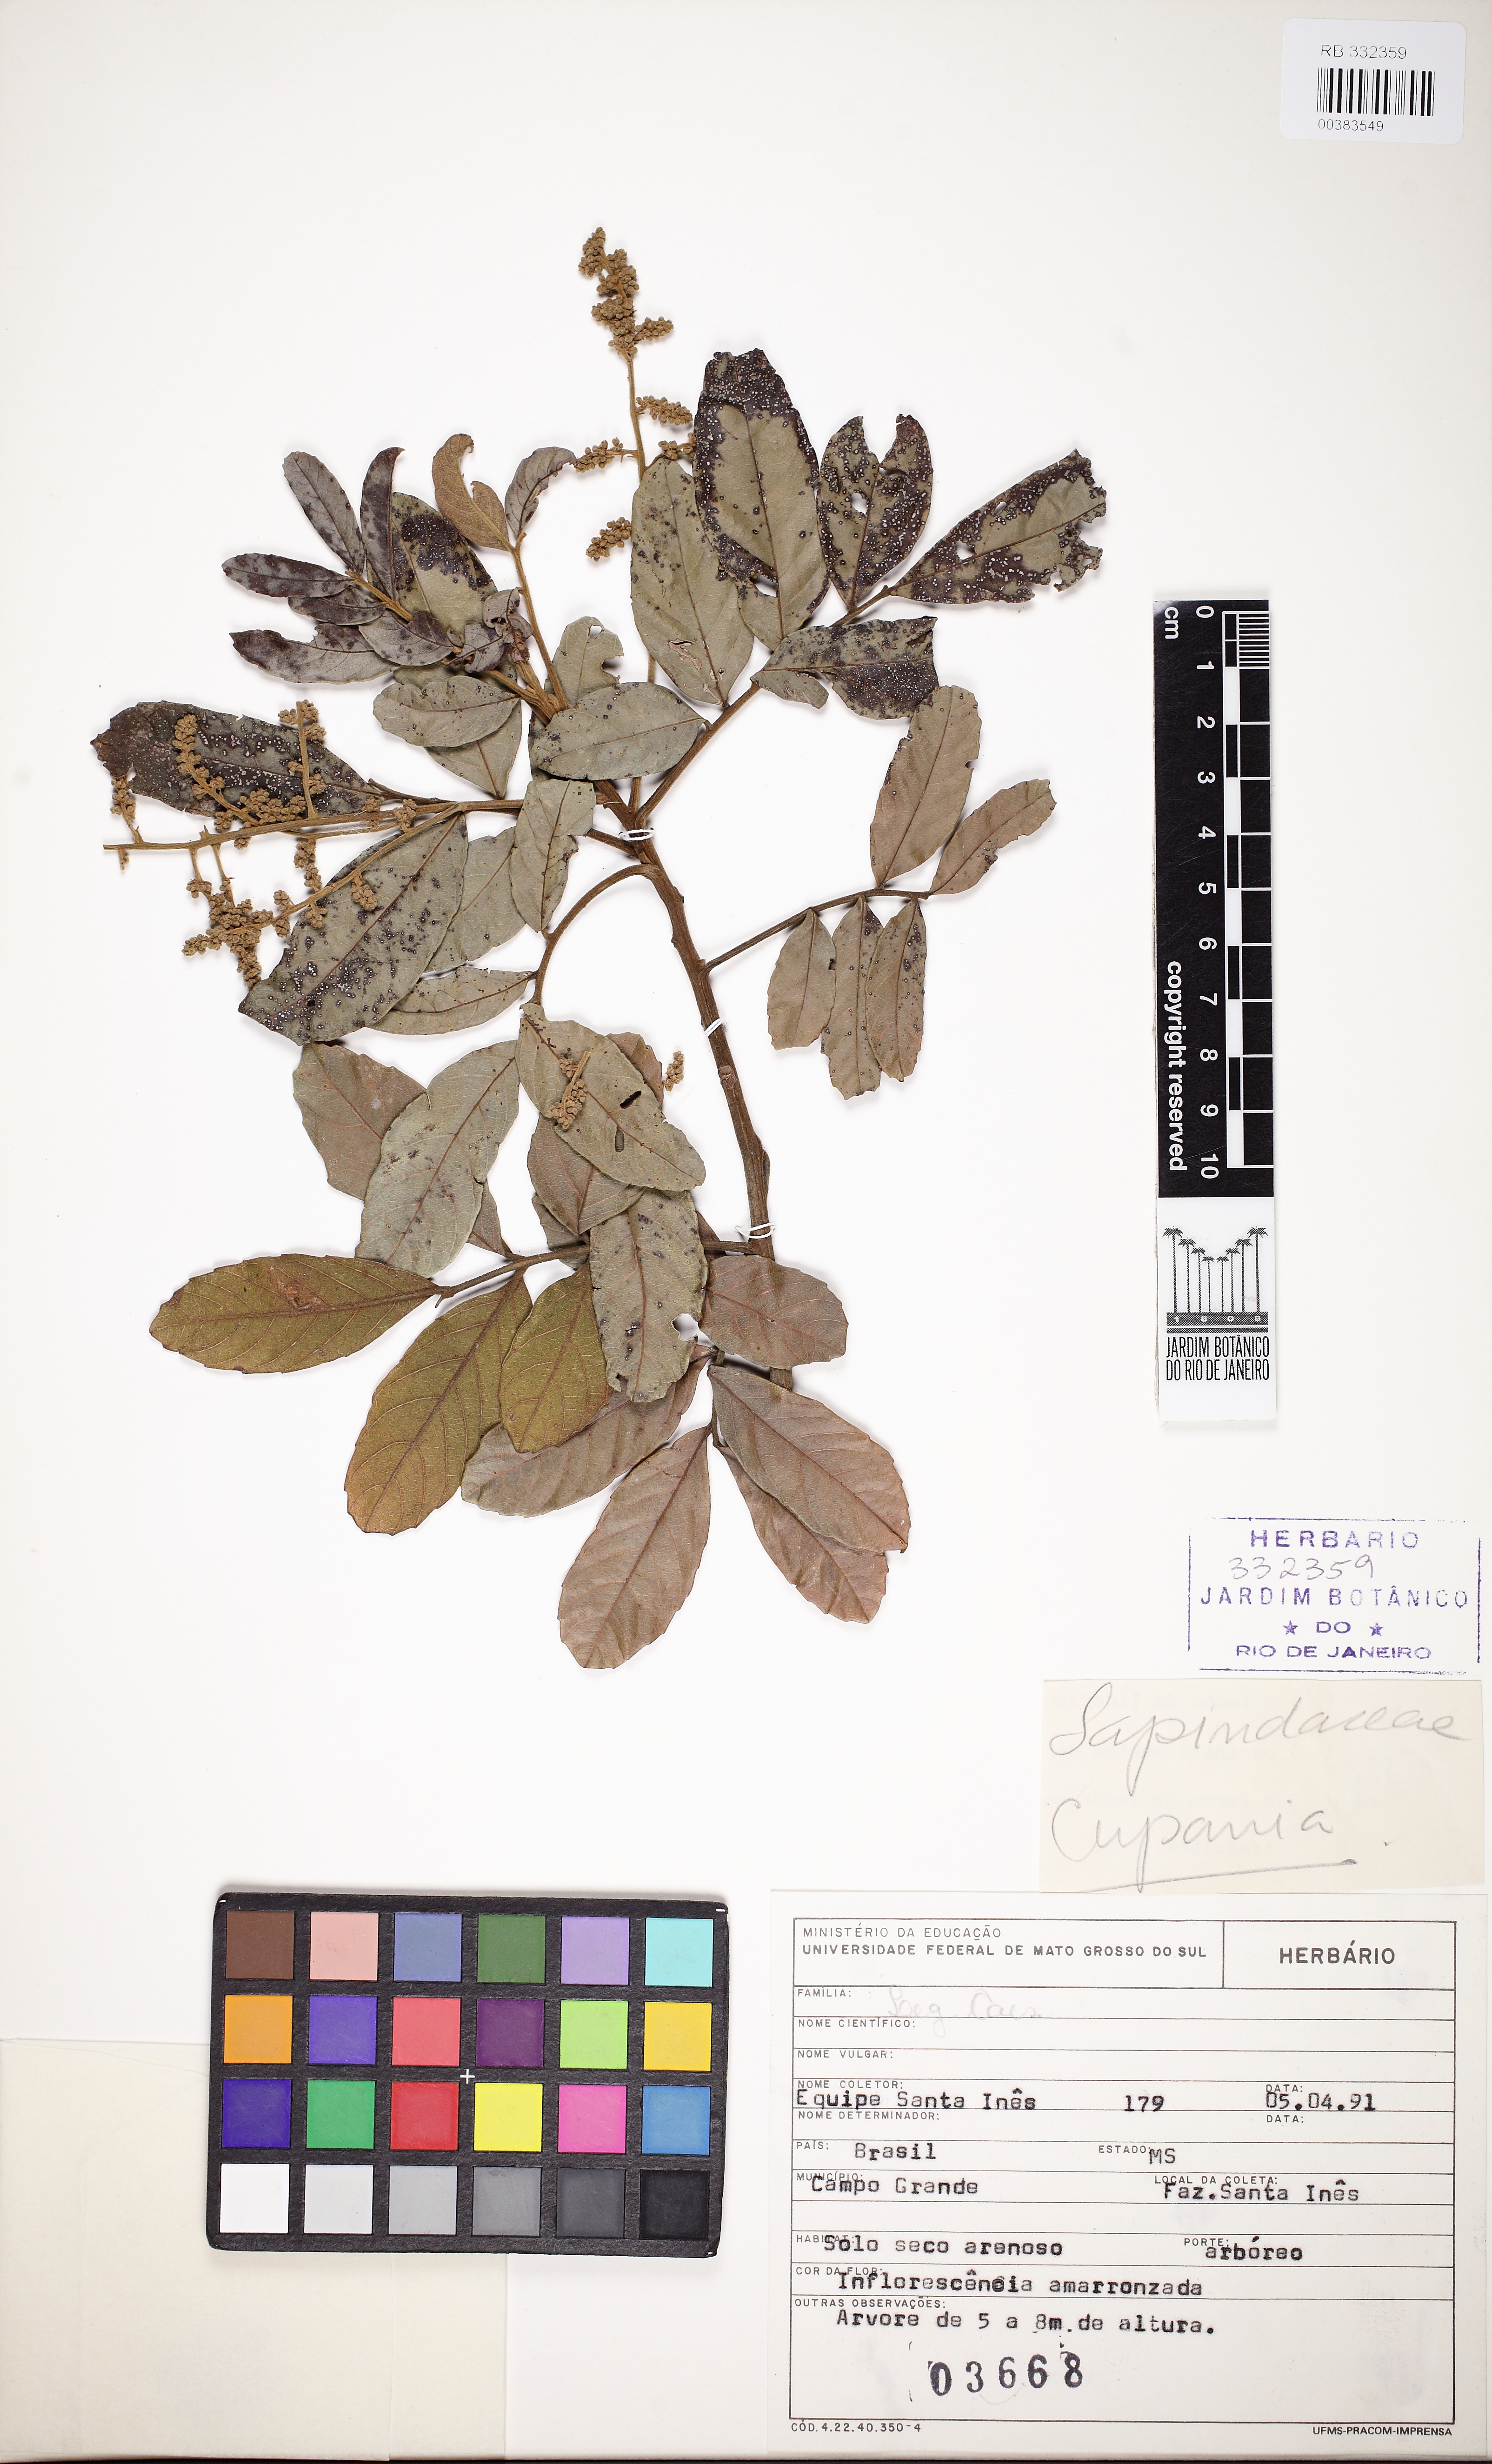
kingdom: Plantae
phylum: Tracheophyta
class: Magnoliopsida
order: Sapindales
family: Sapindaceae
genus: Cupania
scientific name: Cupania
